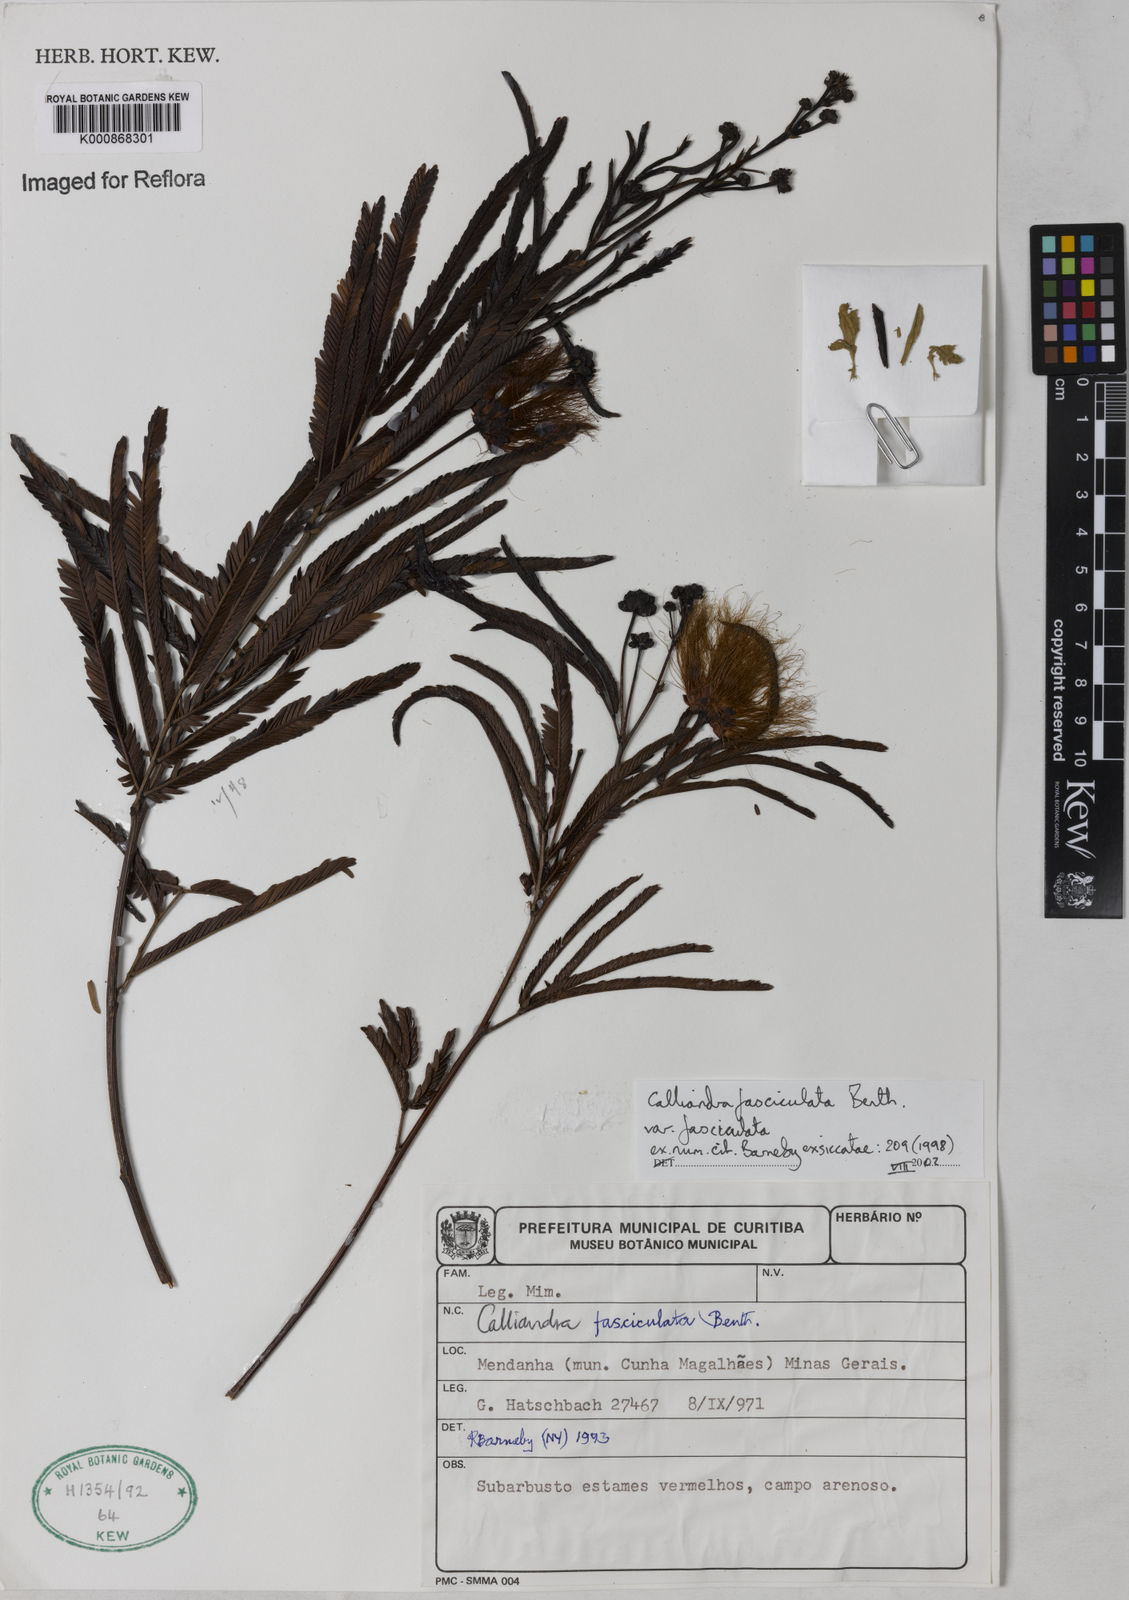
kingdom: Plantae
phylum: Tracheophyta
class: Magnoliopsida
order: Fabales
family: Fabaceae
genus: Calliandra
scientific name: Calliandra fasciculata
